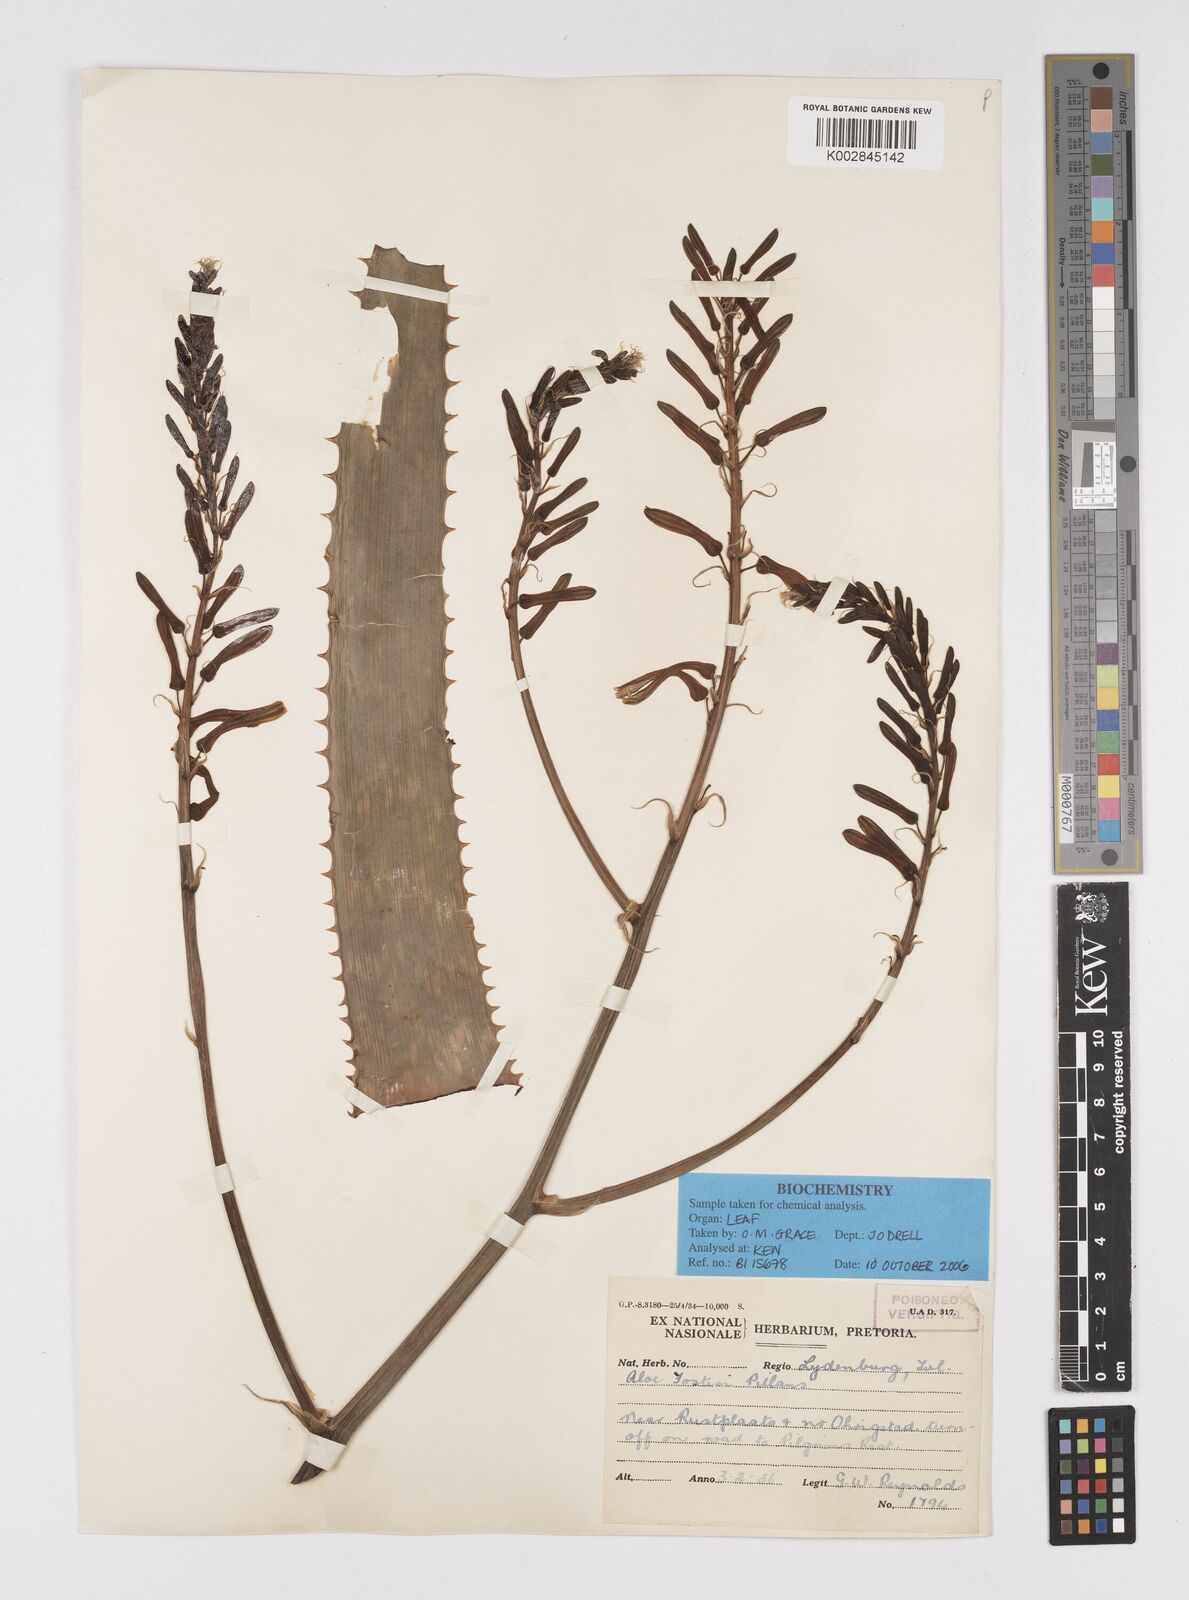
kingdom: Plantae
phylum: Tracheophyta
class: Liliopsida
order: Asparagales
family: Asphodelaceae
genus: Aloe
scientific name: Aloe fosteri
